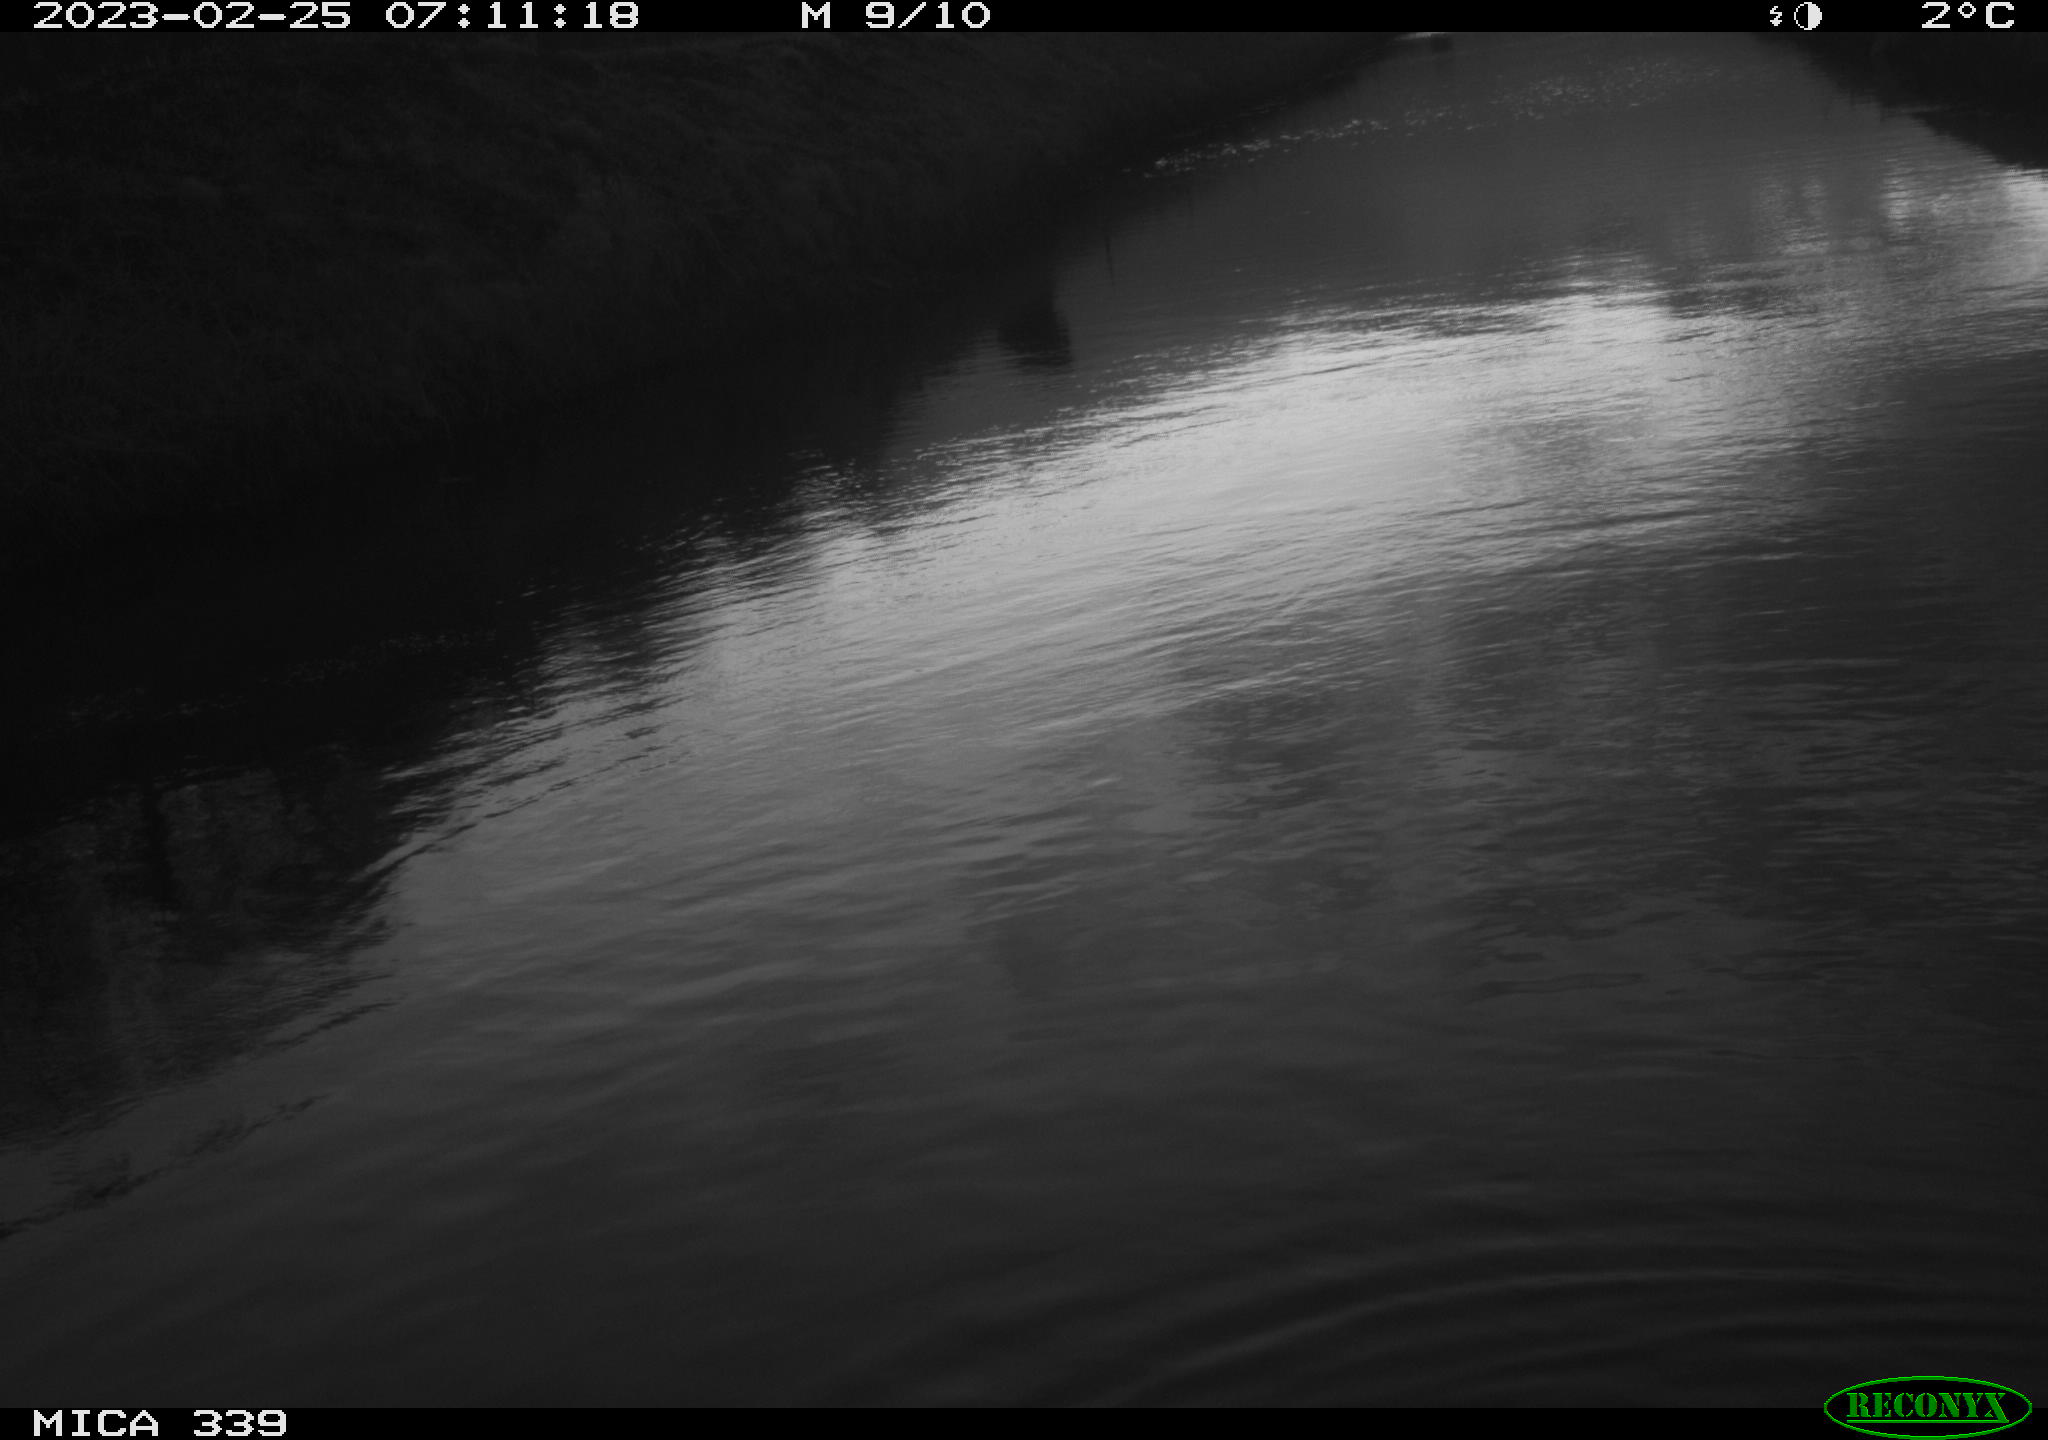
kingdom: Animalia
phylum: Chordata
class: Aves
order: Pelecaniformes
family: Ardeidae
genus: Ardea
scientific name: Ardea cinerea
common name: Grey heron
